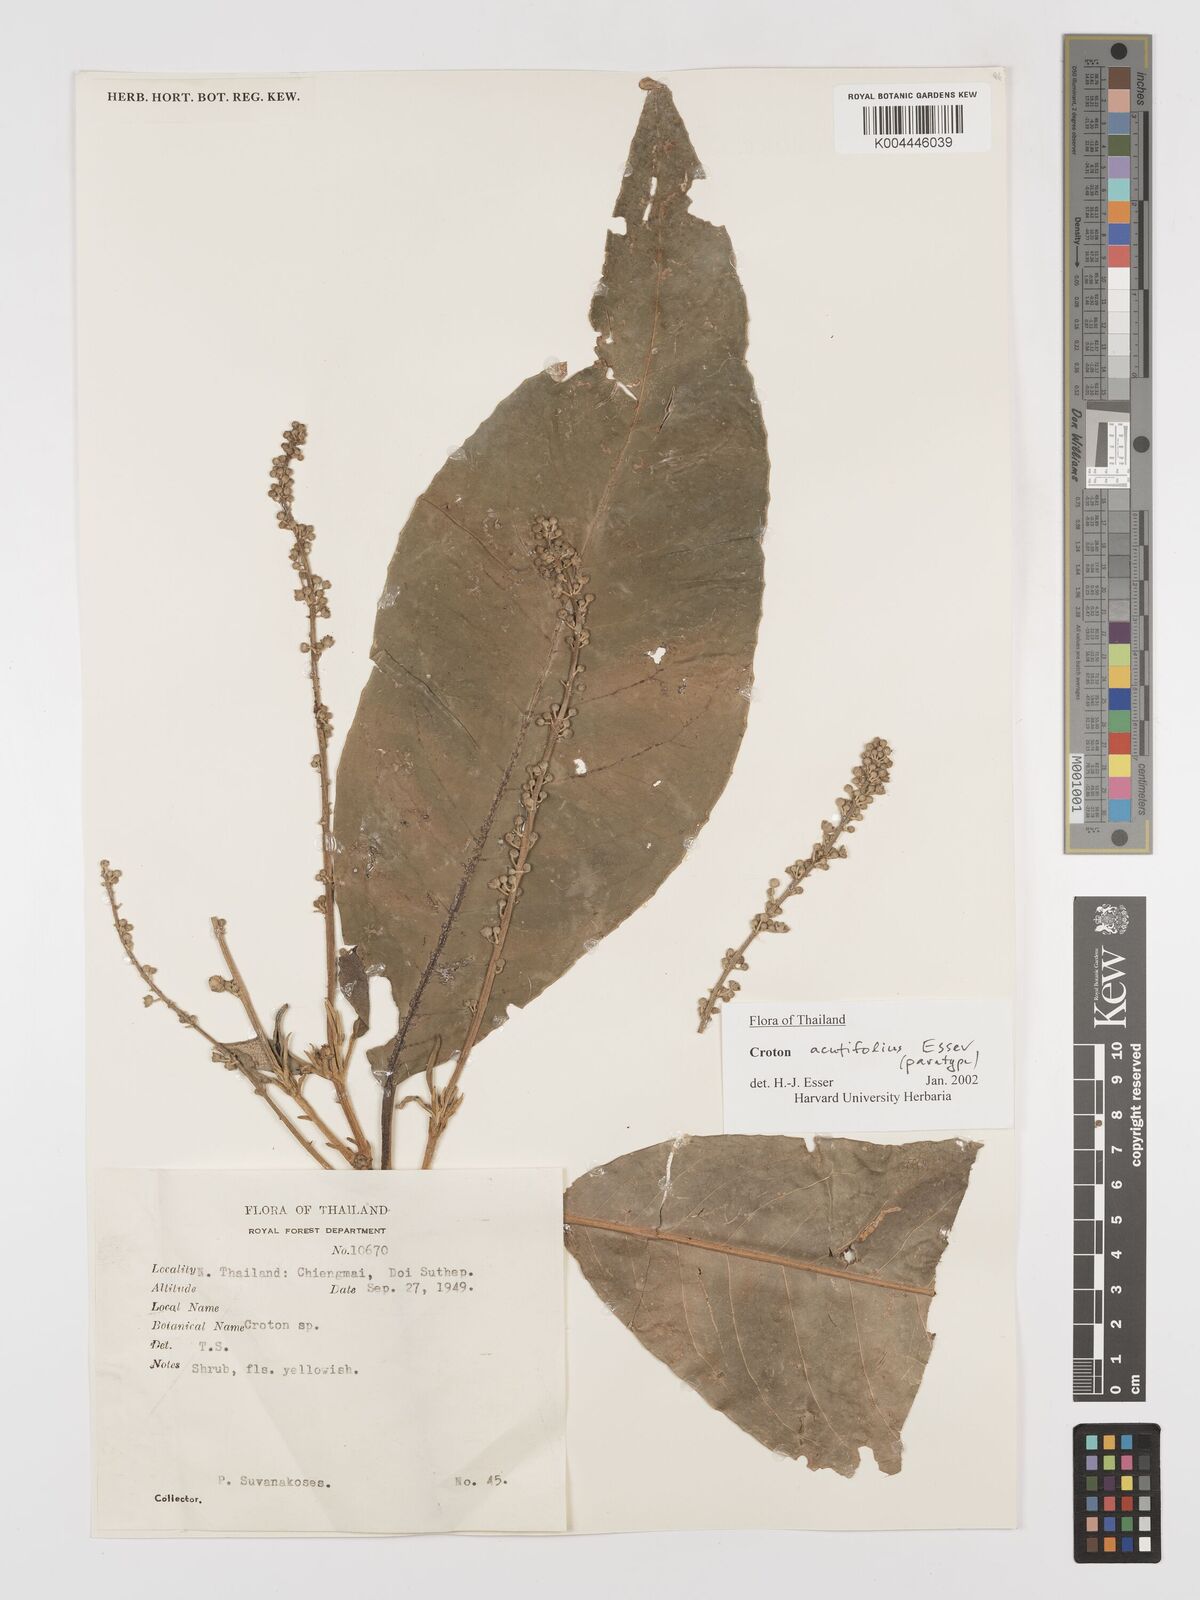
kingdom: Plantae
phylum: Tracheophyta
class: Magnoliopsida
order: Malpighiales
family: Euphorbiaceae
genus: Croton
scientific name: Croton acutifolius
